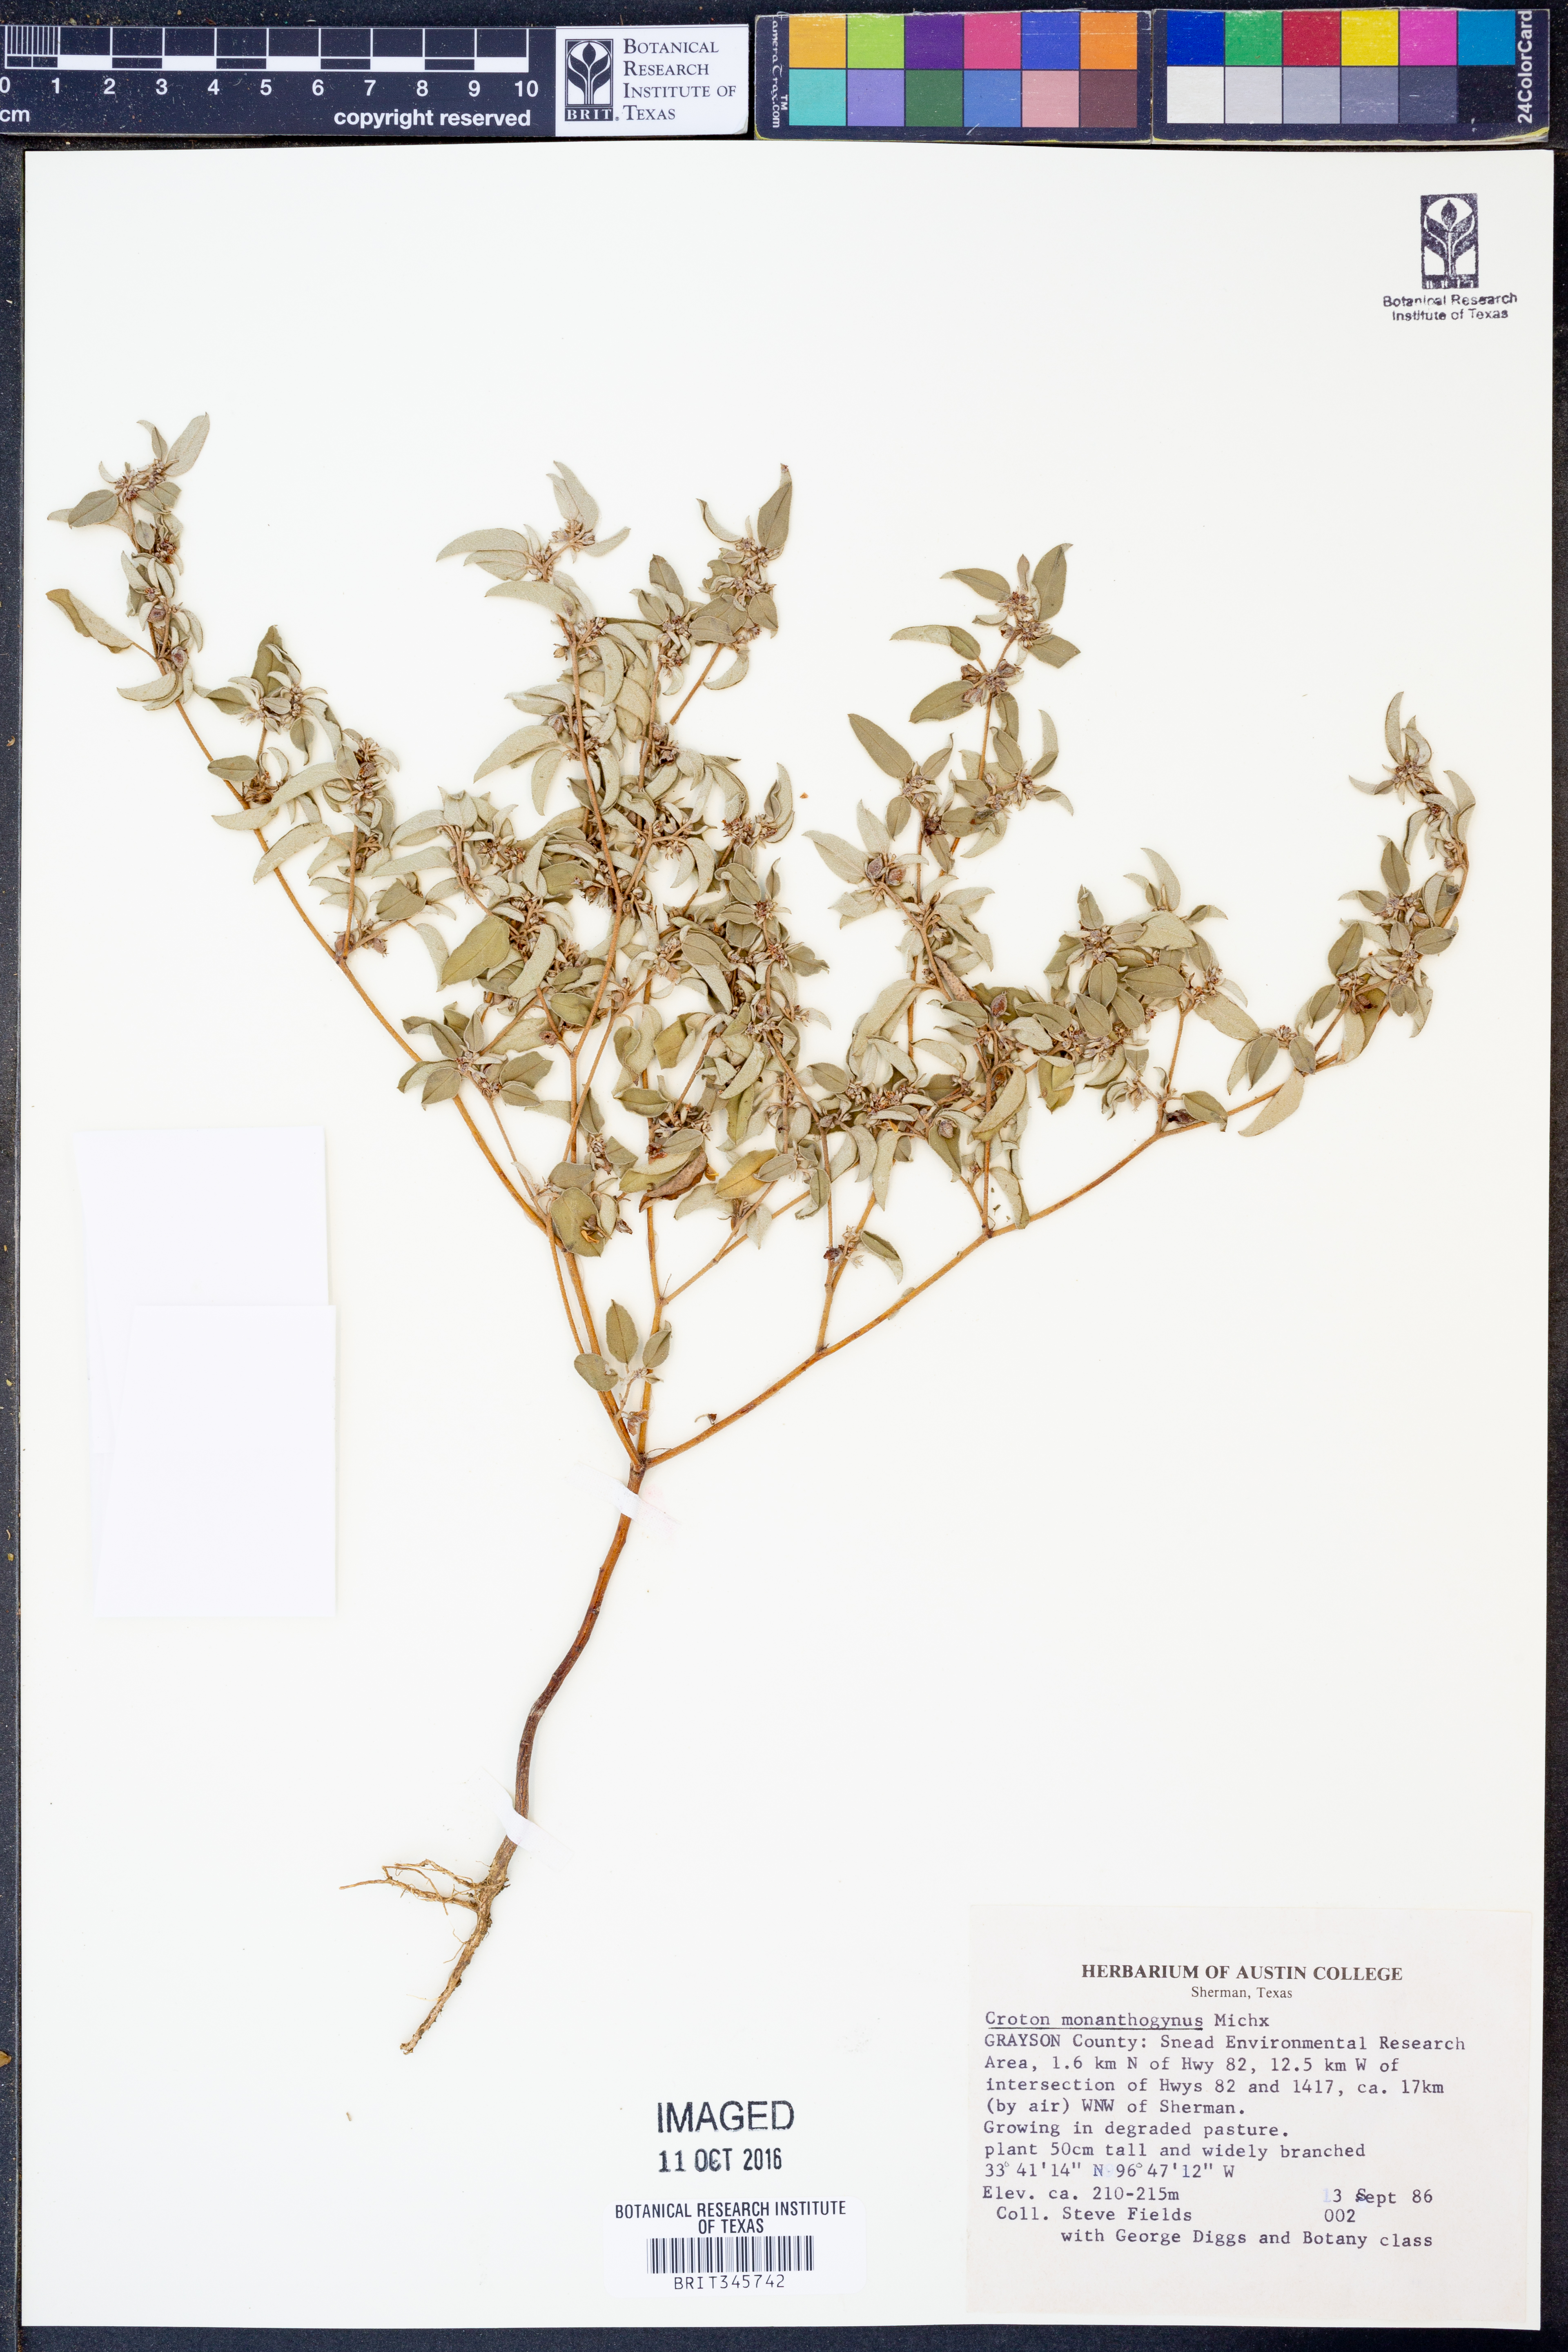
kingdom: Plantae
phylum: Tracheophyta
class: Magnoliopsida
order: Malpighiales
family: Euphorbiaceae
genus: Croton
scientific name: Croton monanthogynus
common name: One-seed croton
